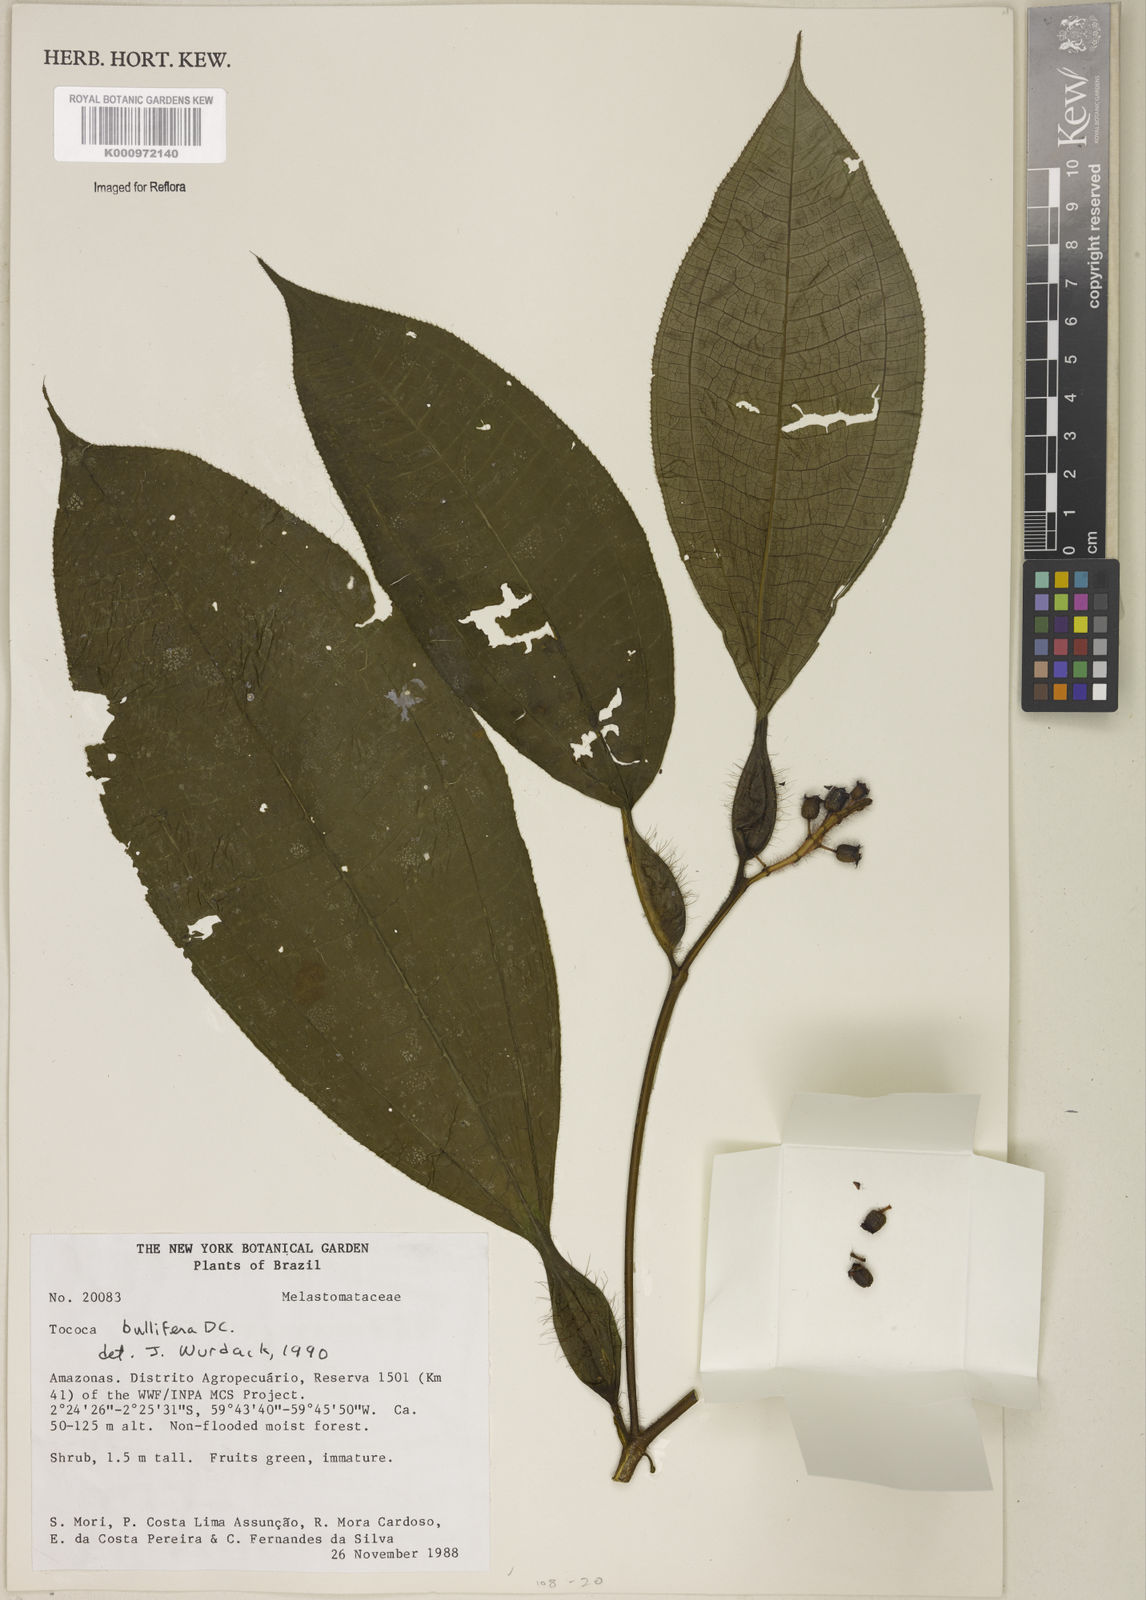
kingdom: Plantae
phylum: Tracheophyta
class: Magnoliopsida
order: Myrtales
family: Melastomataceae
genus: Miconia
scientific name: Miconia bullifera
